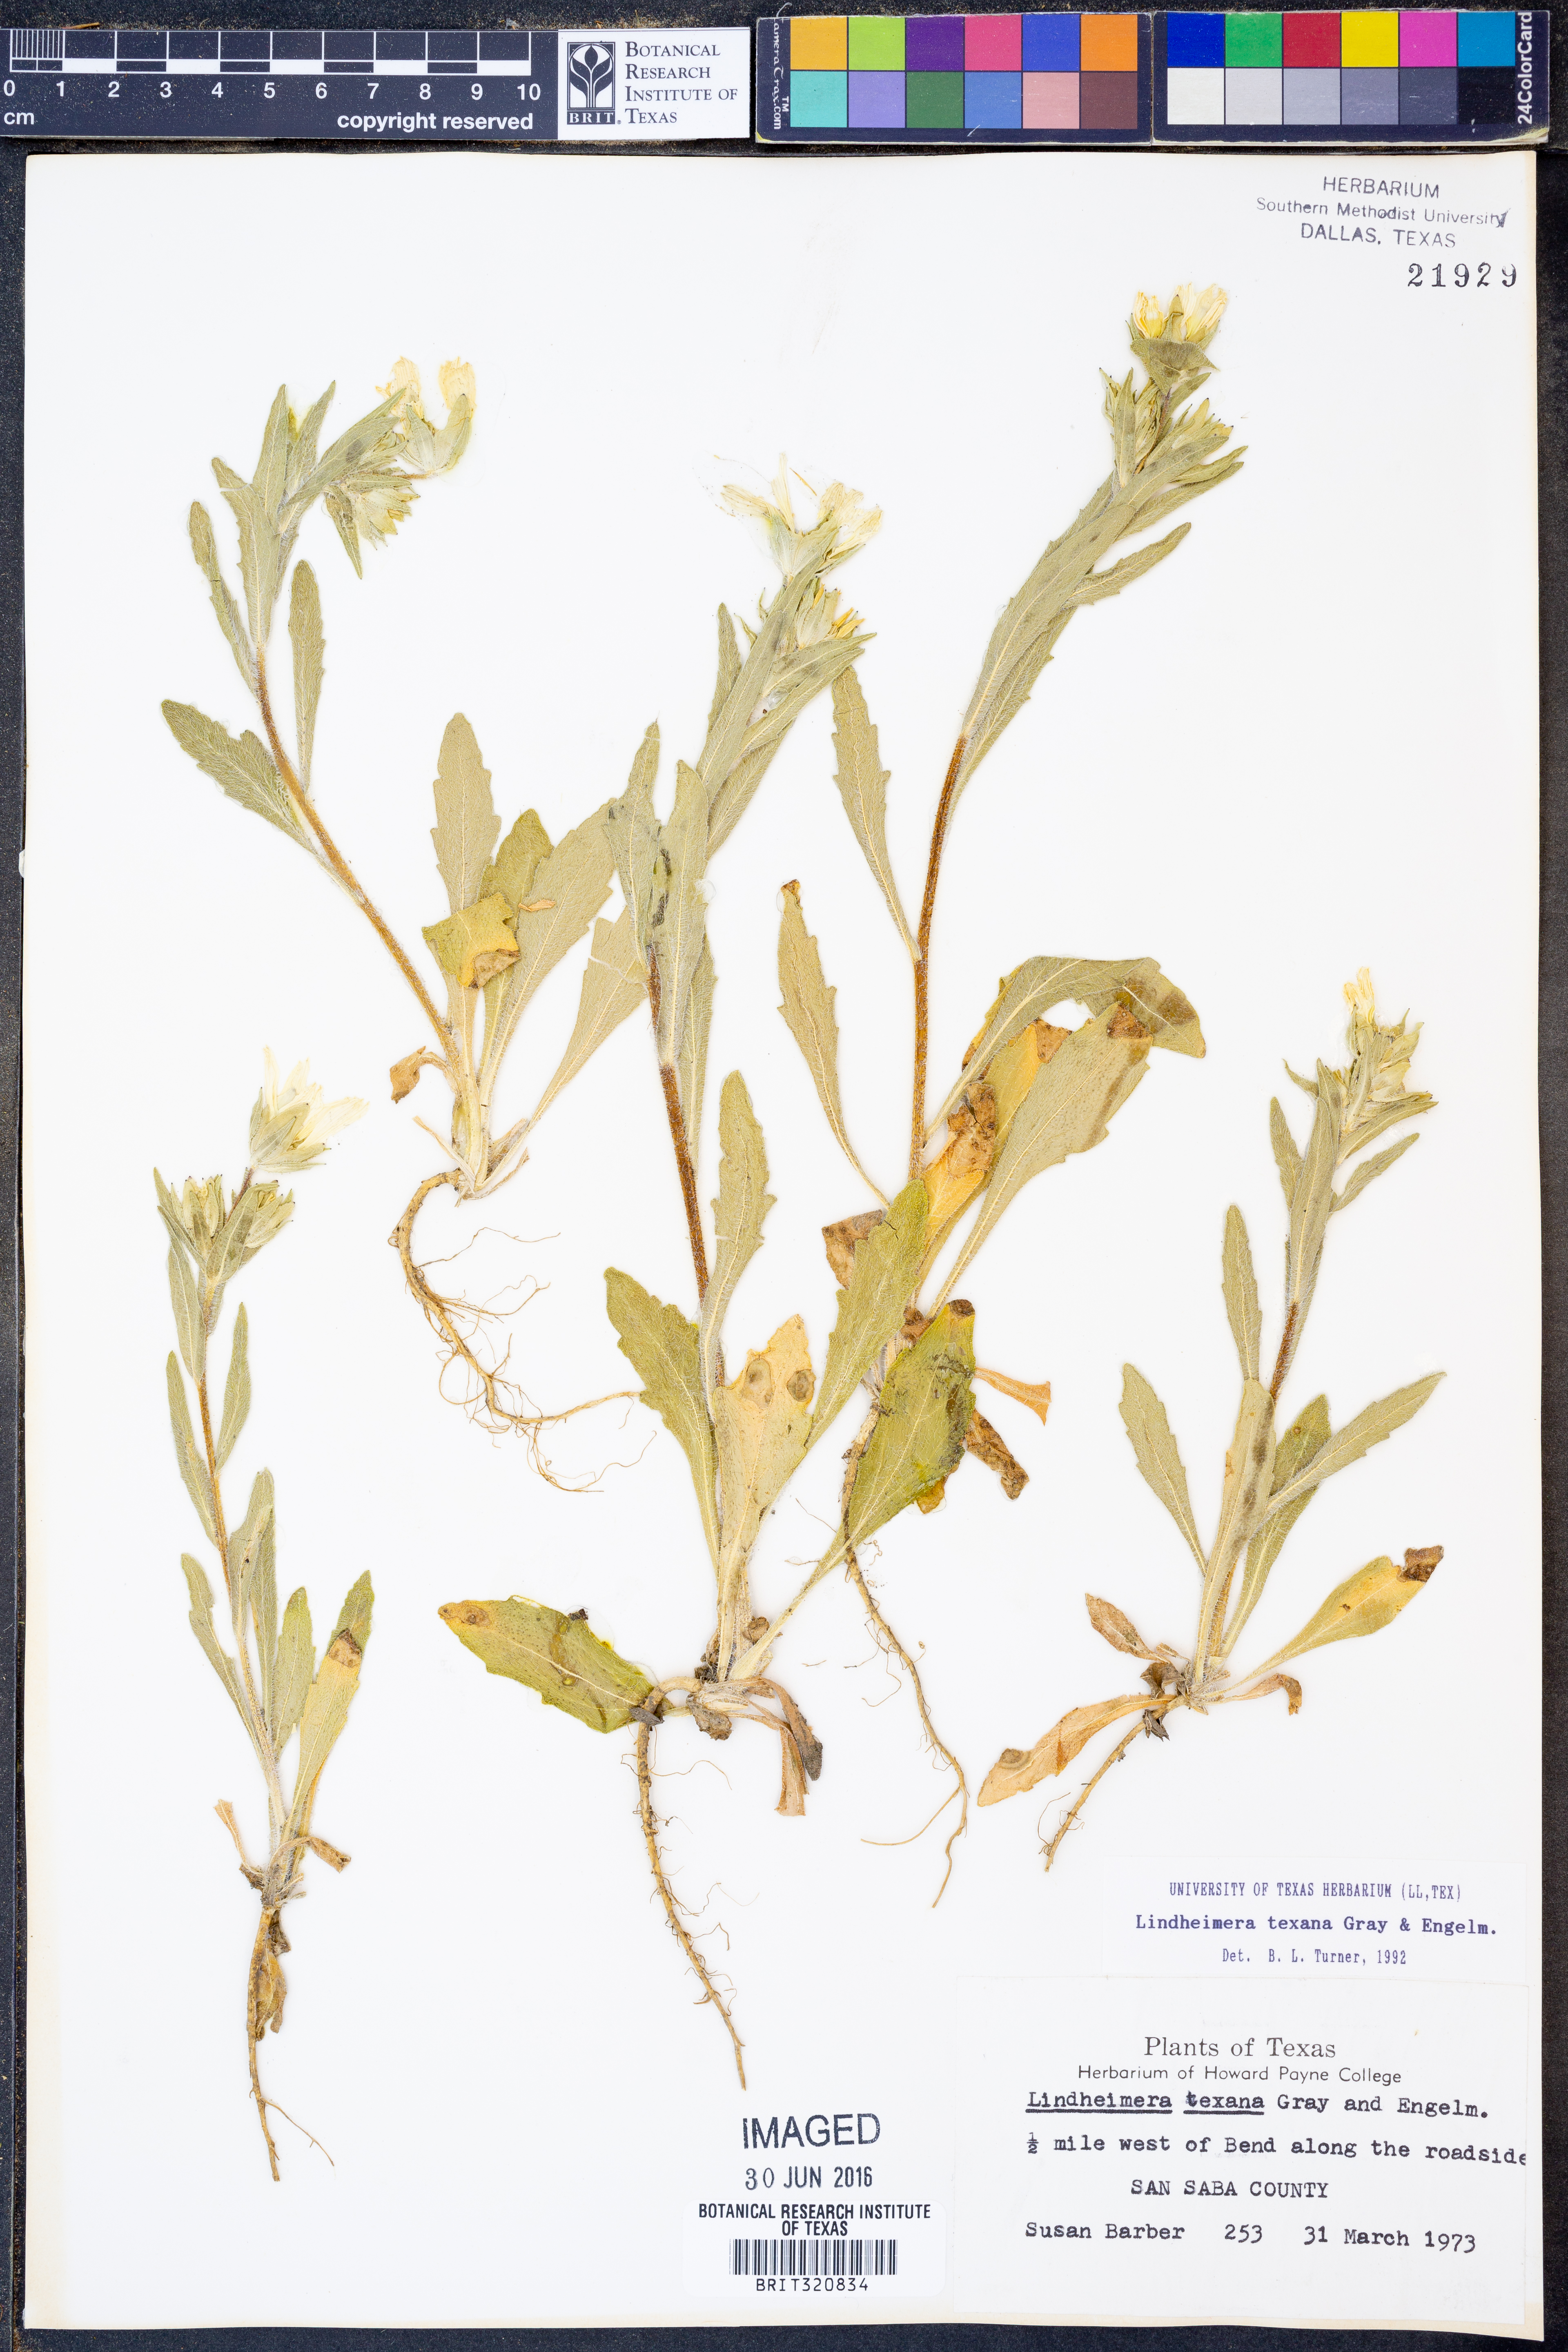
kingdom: Plantae
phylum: Tracheophyta
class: Magnoliopsida
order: Asterales
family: Asteraceae
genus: Lindheimera
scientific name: Lindheimera texana
